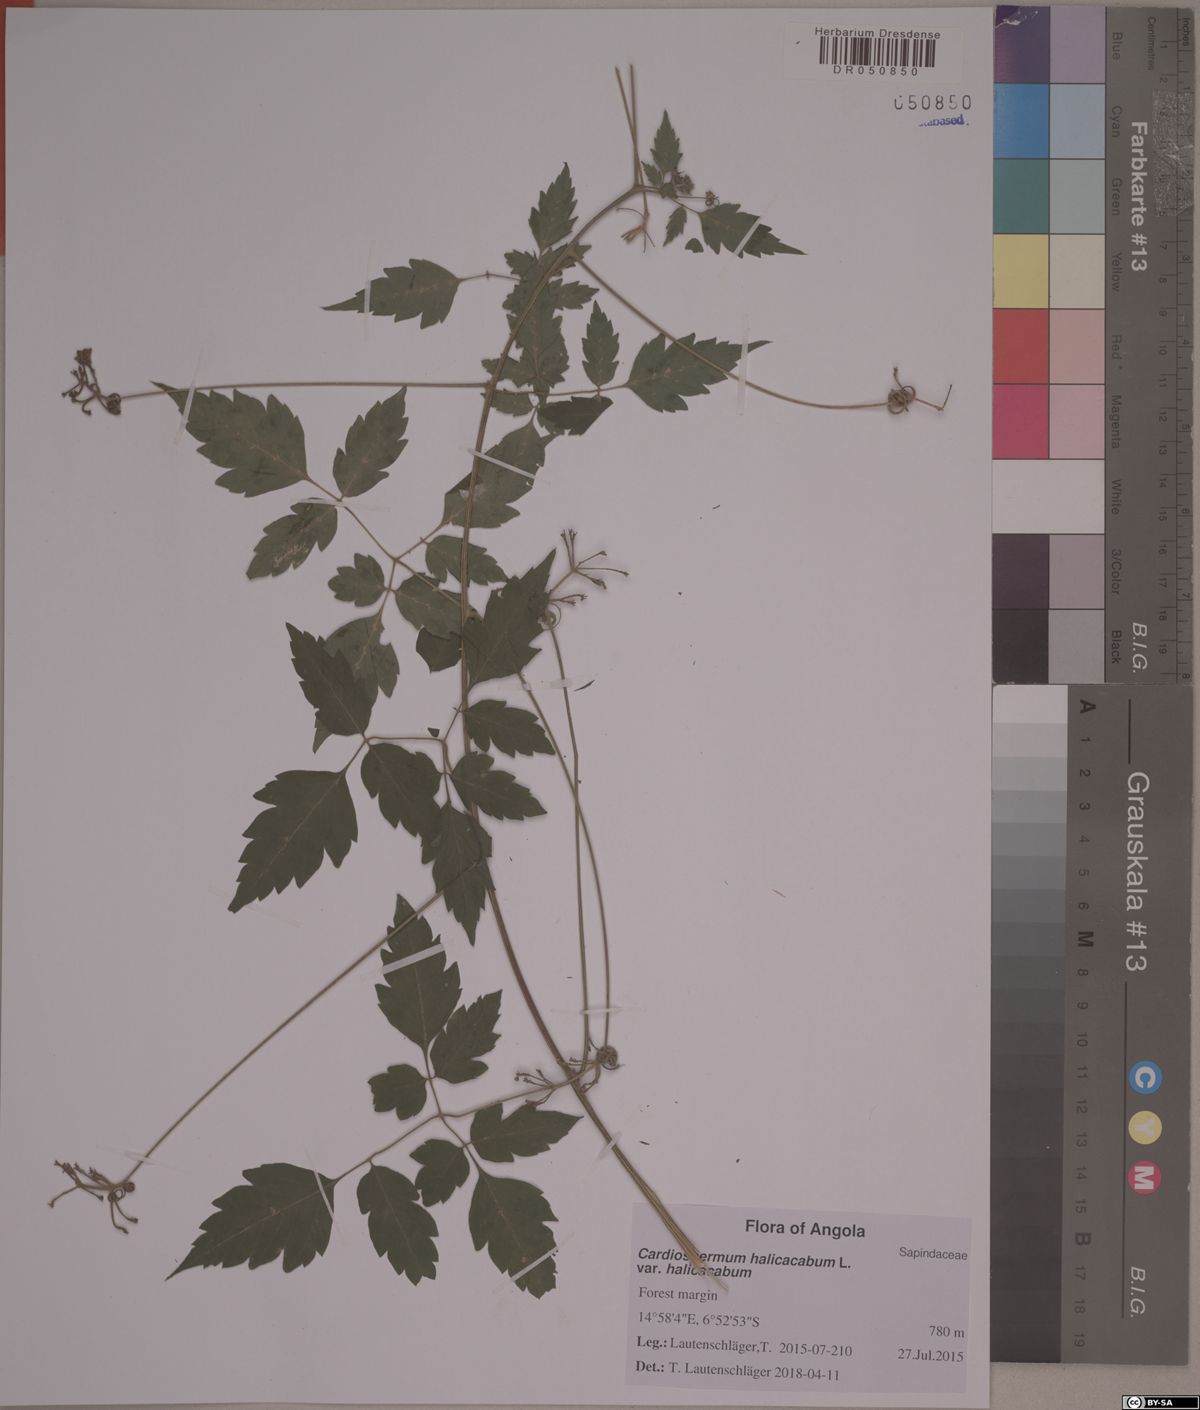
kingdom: Plantae
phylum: Tracheophyta
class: Liliopsida
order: Arecales
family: Arecaceae
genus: Raphia
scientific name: Raphia laurentii
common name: Raphia palm
